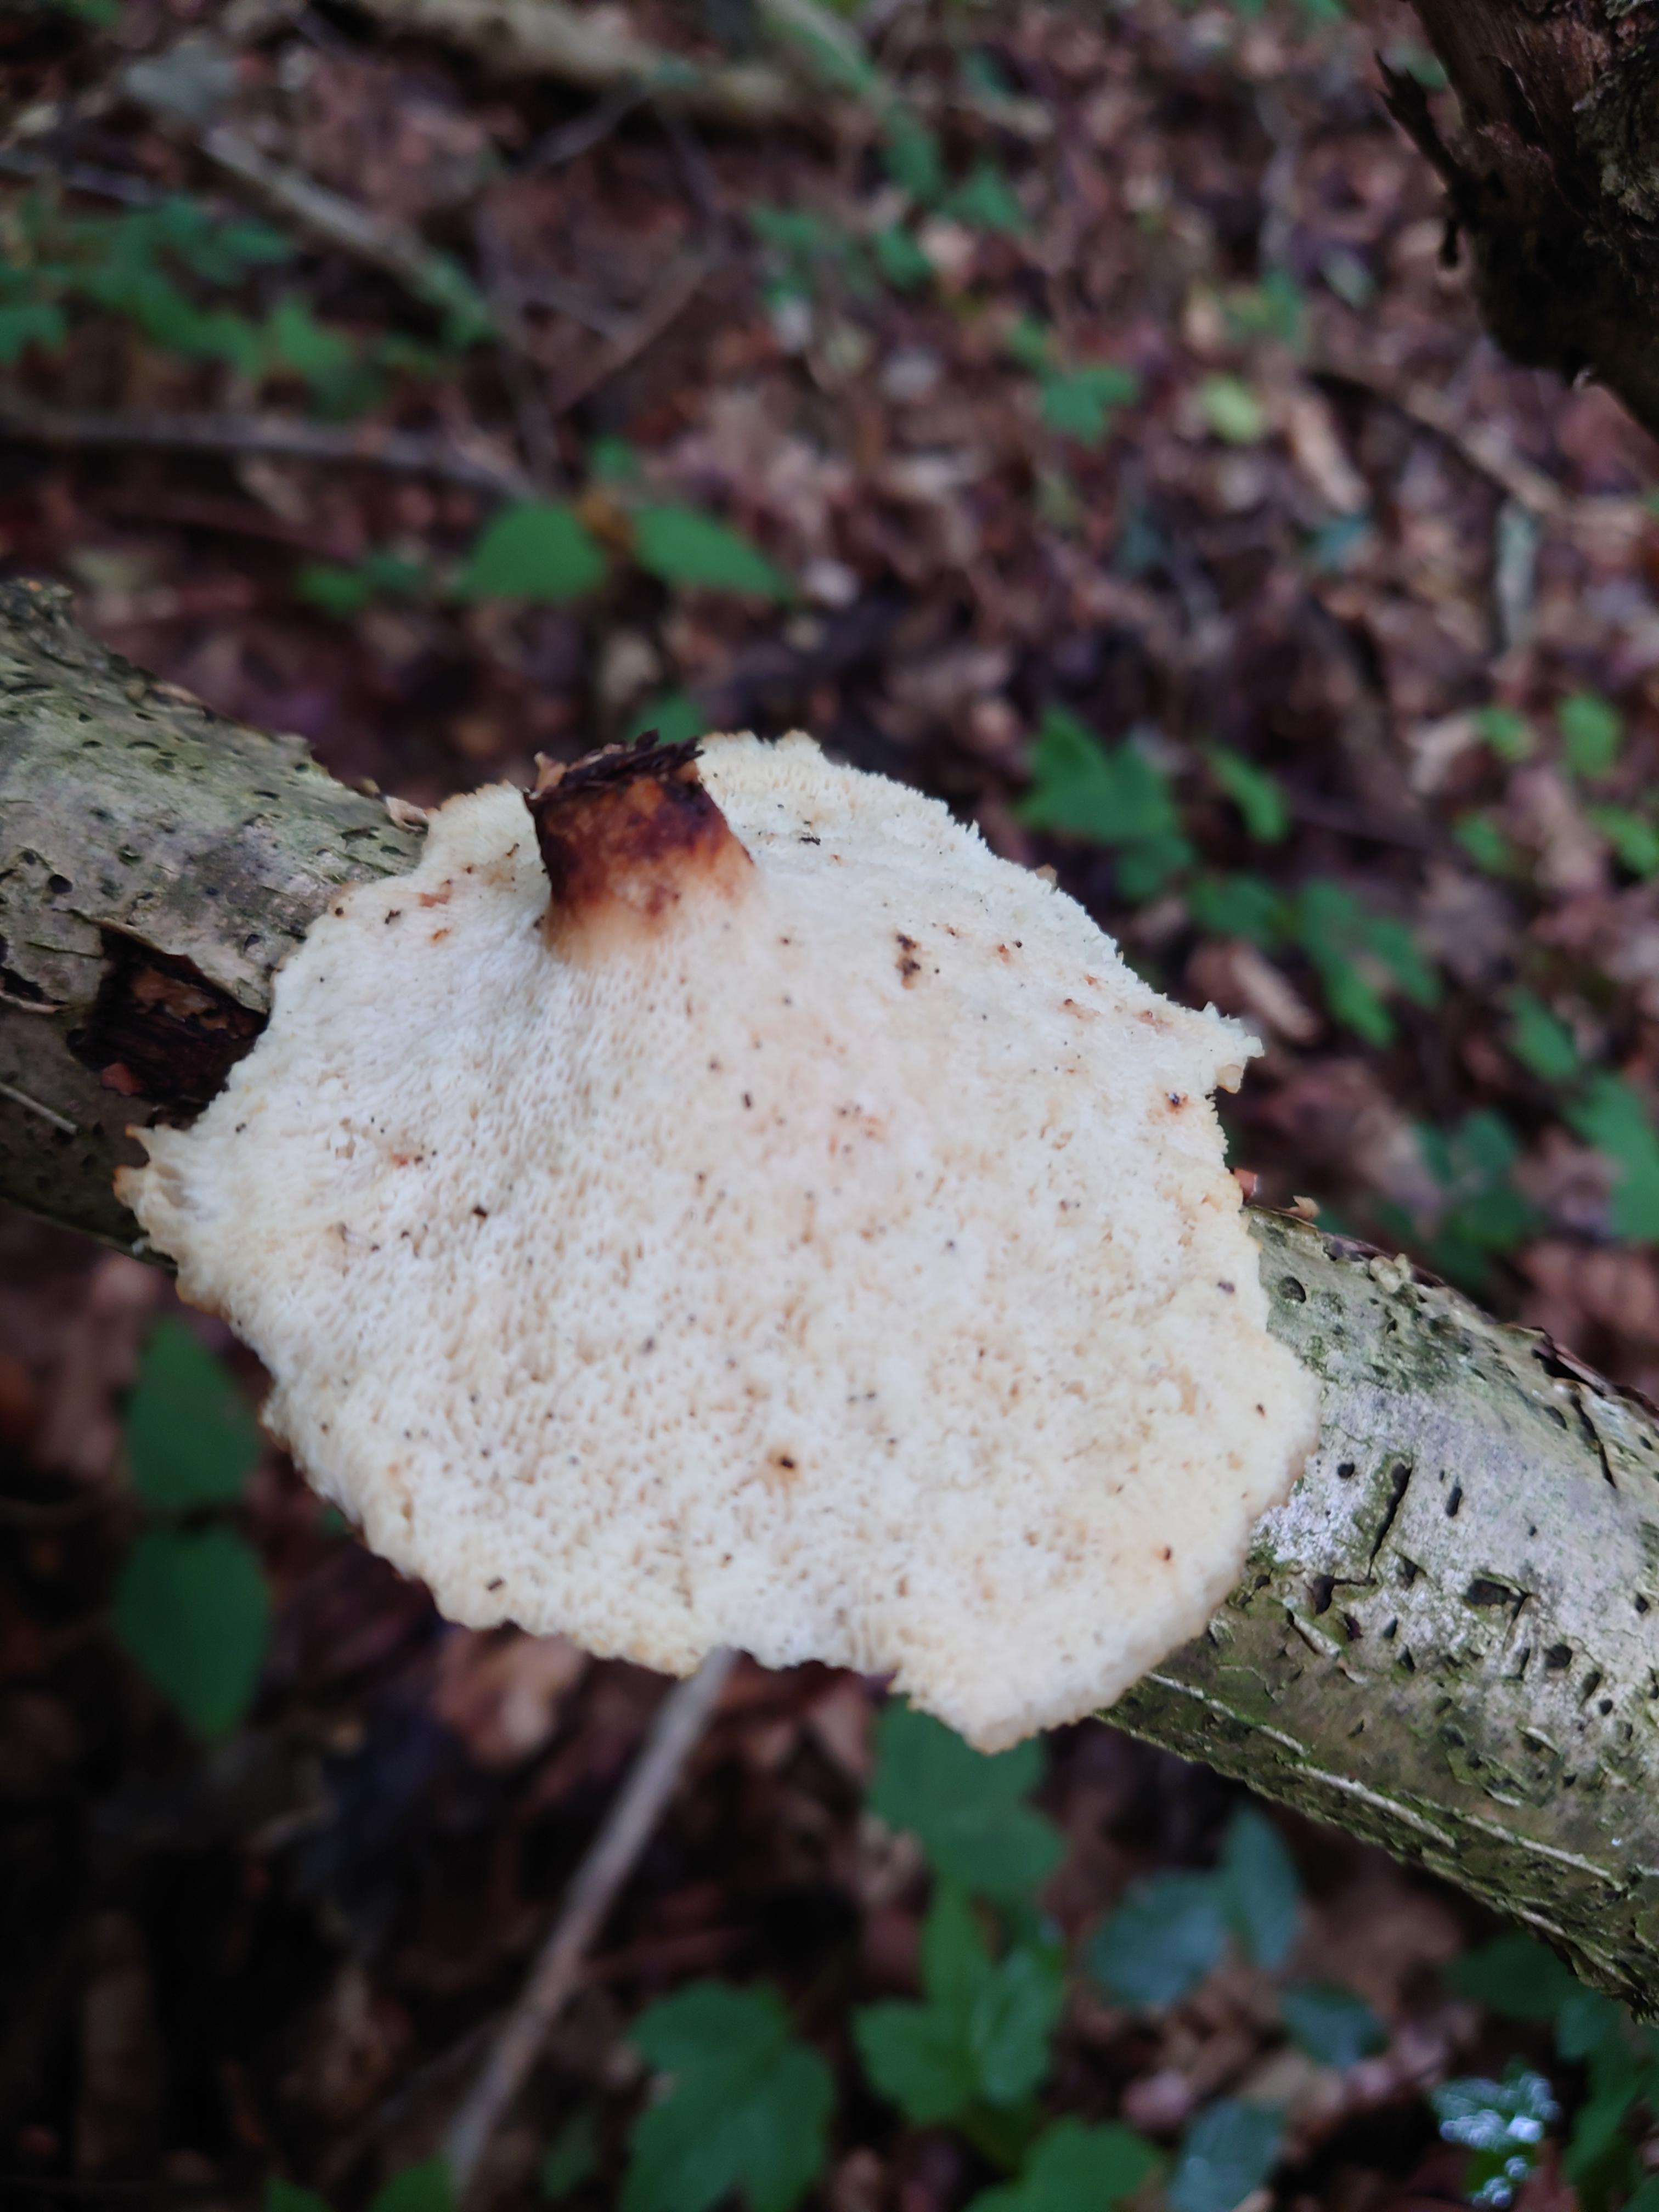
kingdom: Fungi
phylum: Basidiomycota
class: Agaricomycetes
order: Polyporales
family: Polyporaceae
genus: Cerioporus
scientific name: Cerioporus varius
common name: foranderlig stilkporesvamp
